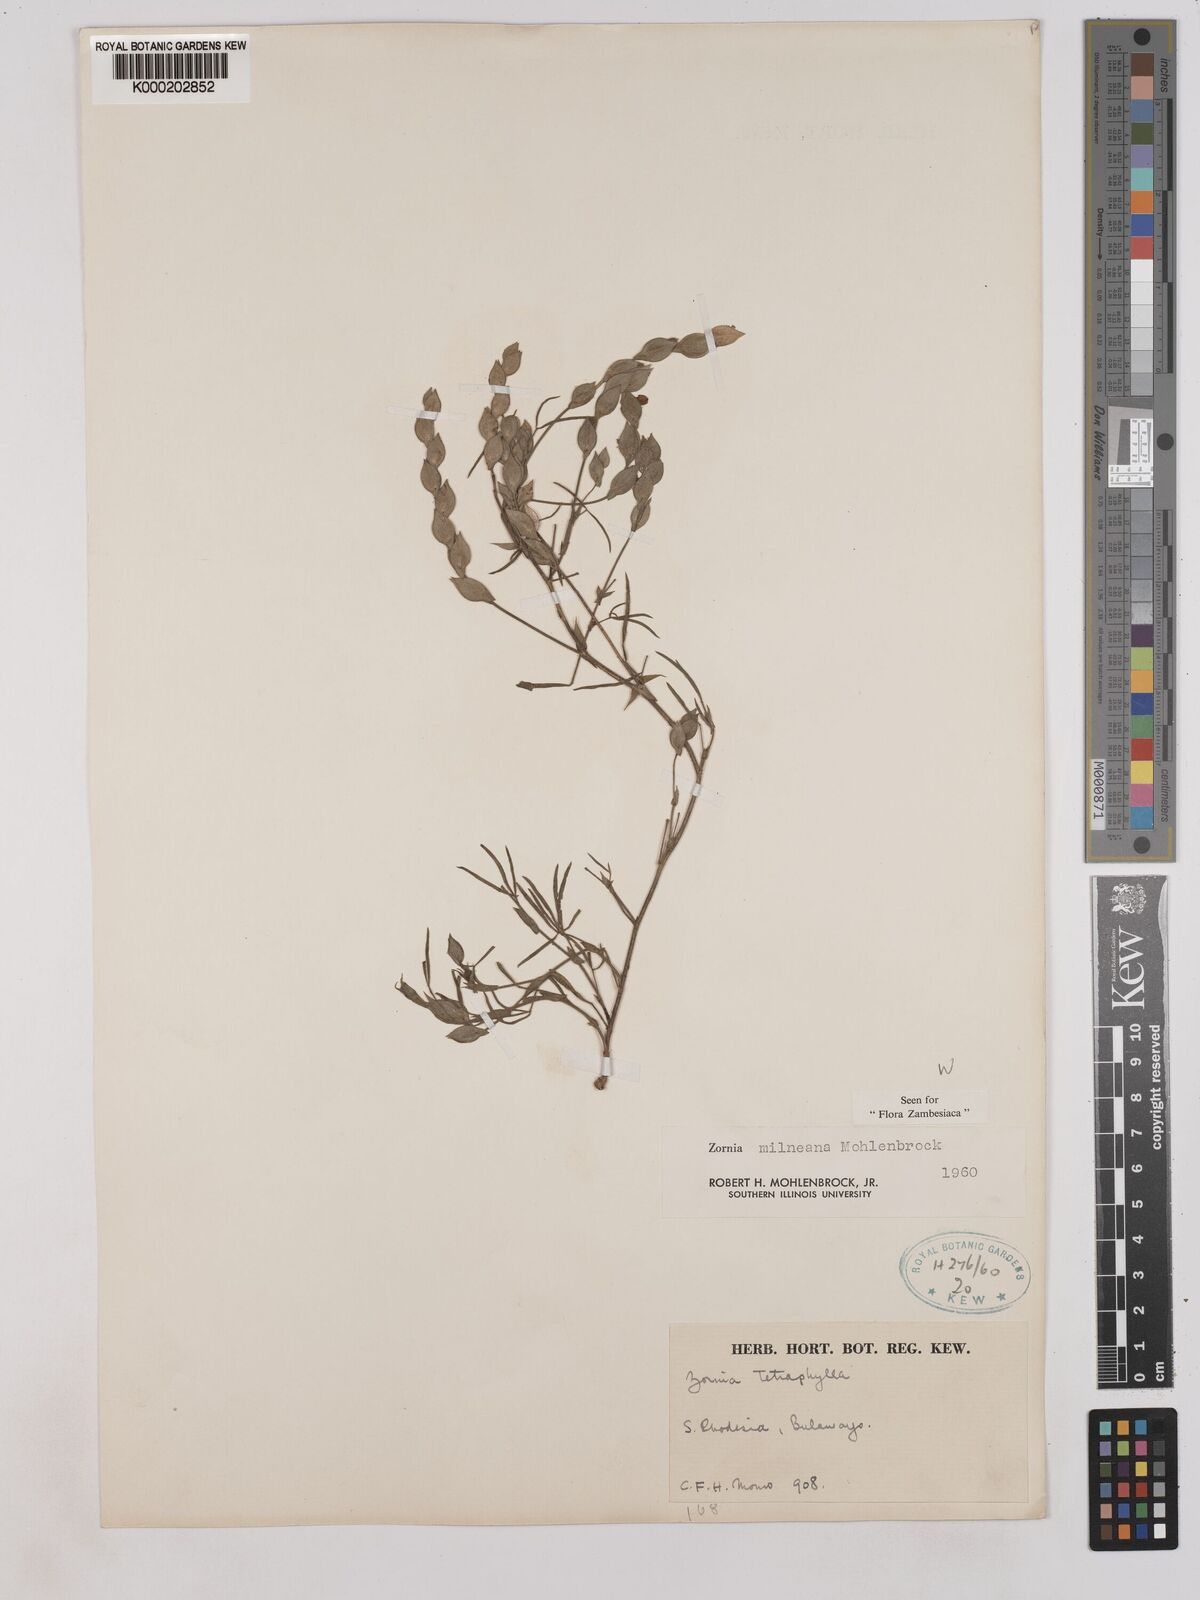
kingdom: Plantae
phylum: Tracheophyta
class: Magnoliopsida
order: Fabales
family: Fabaceae
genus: Zornia
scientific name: Zornia milneana
